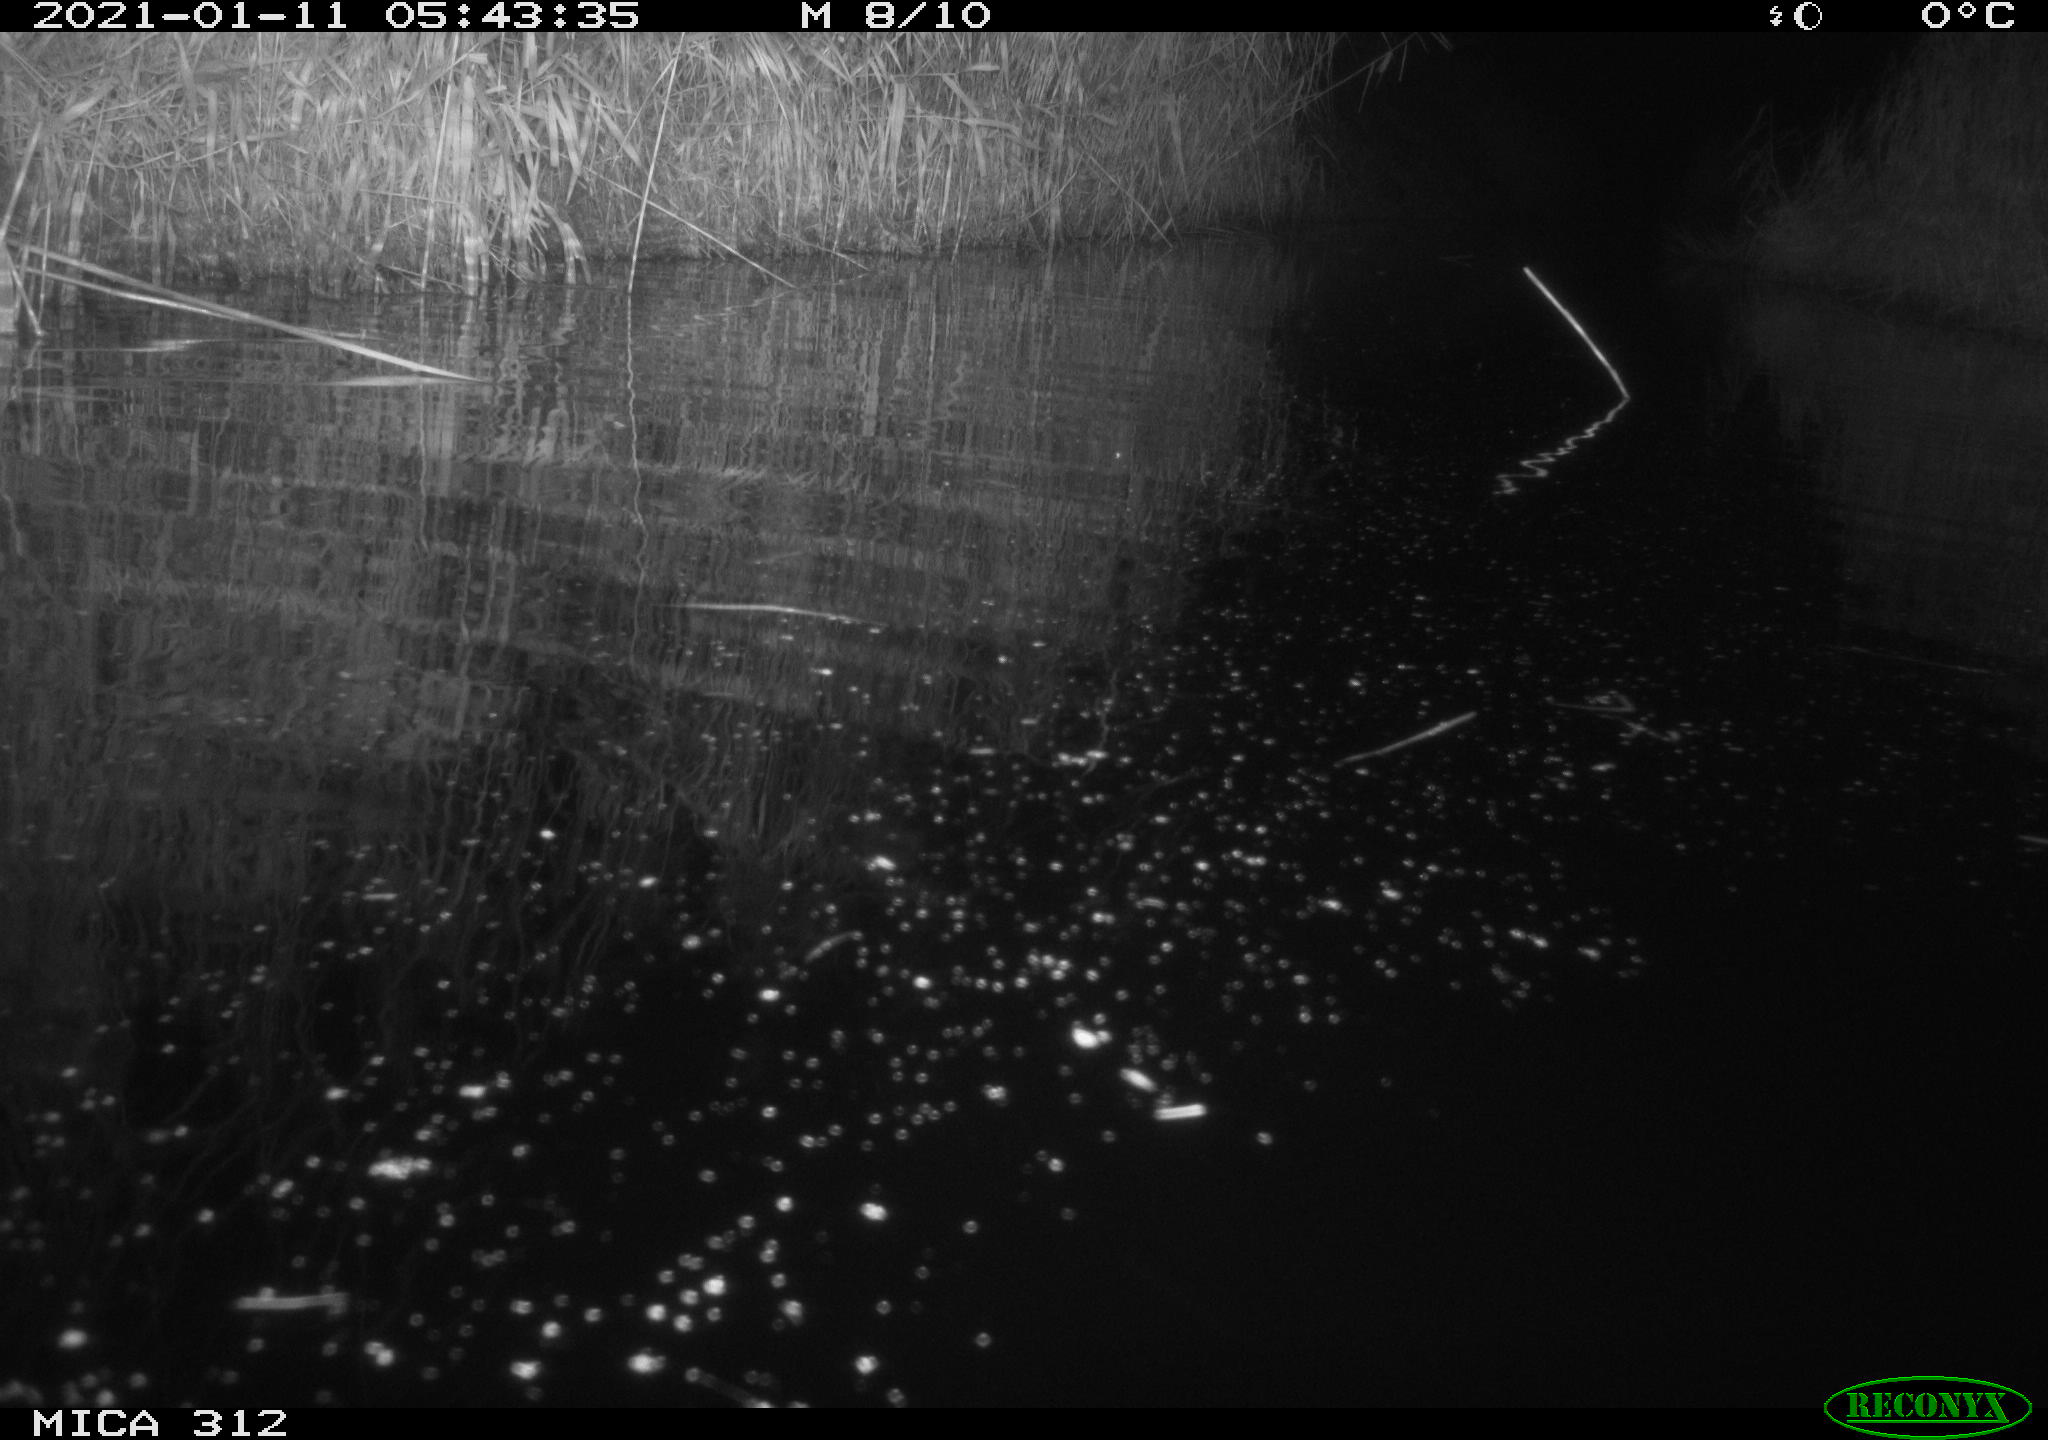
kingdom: Animalia
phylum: Chordata
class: Mammalia
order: Rodentia
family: Muridae
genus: Rattus
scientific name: Rattus norvegicus
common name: Brown rat
